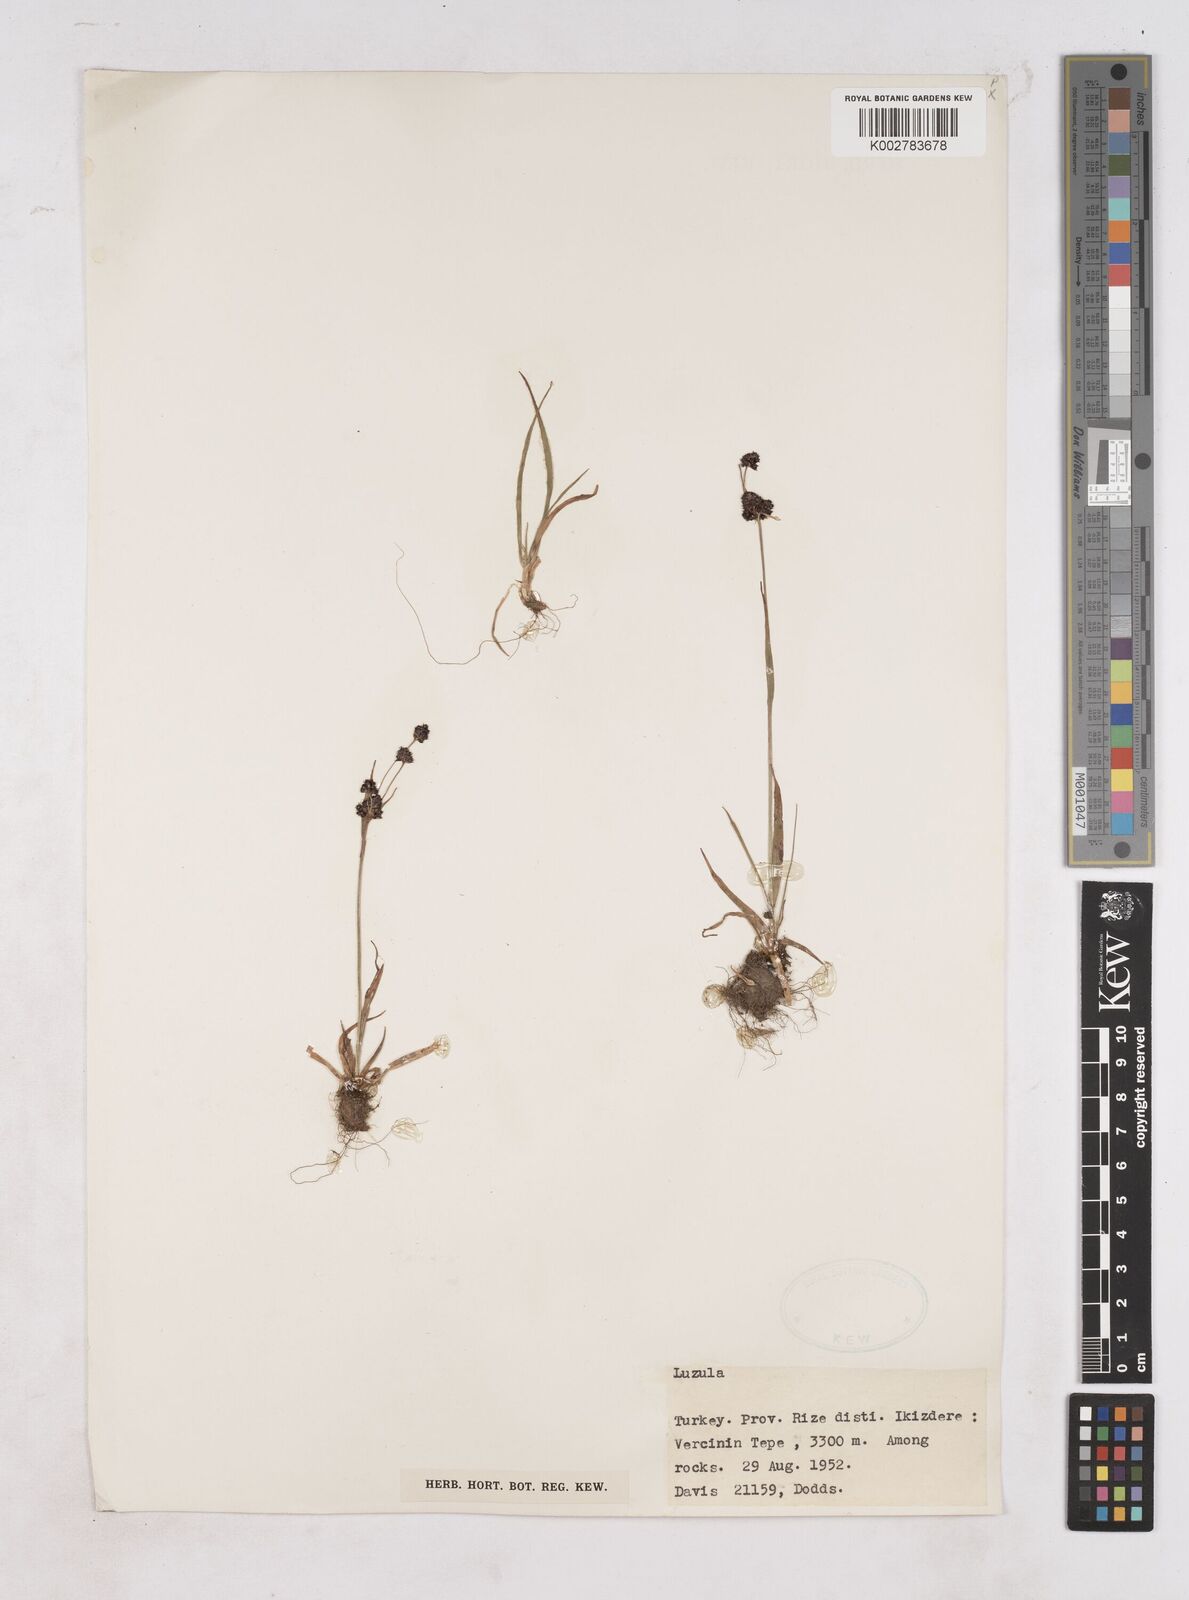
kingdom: Plantae
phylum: Tracheophyta
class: Liliopsida
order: Poales
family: Juncaceae
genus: Luzula
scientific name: Luzula
